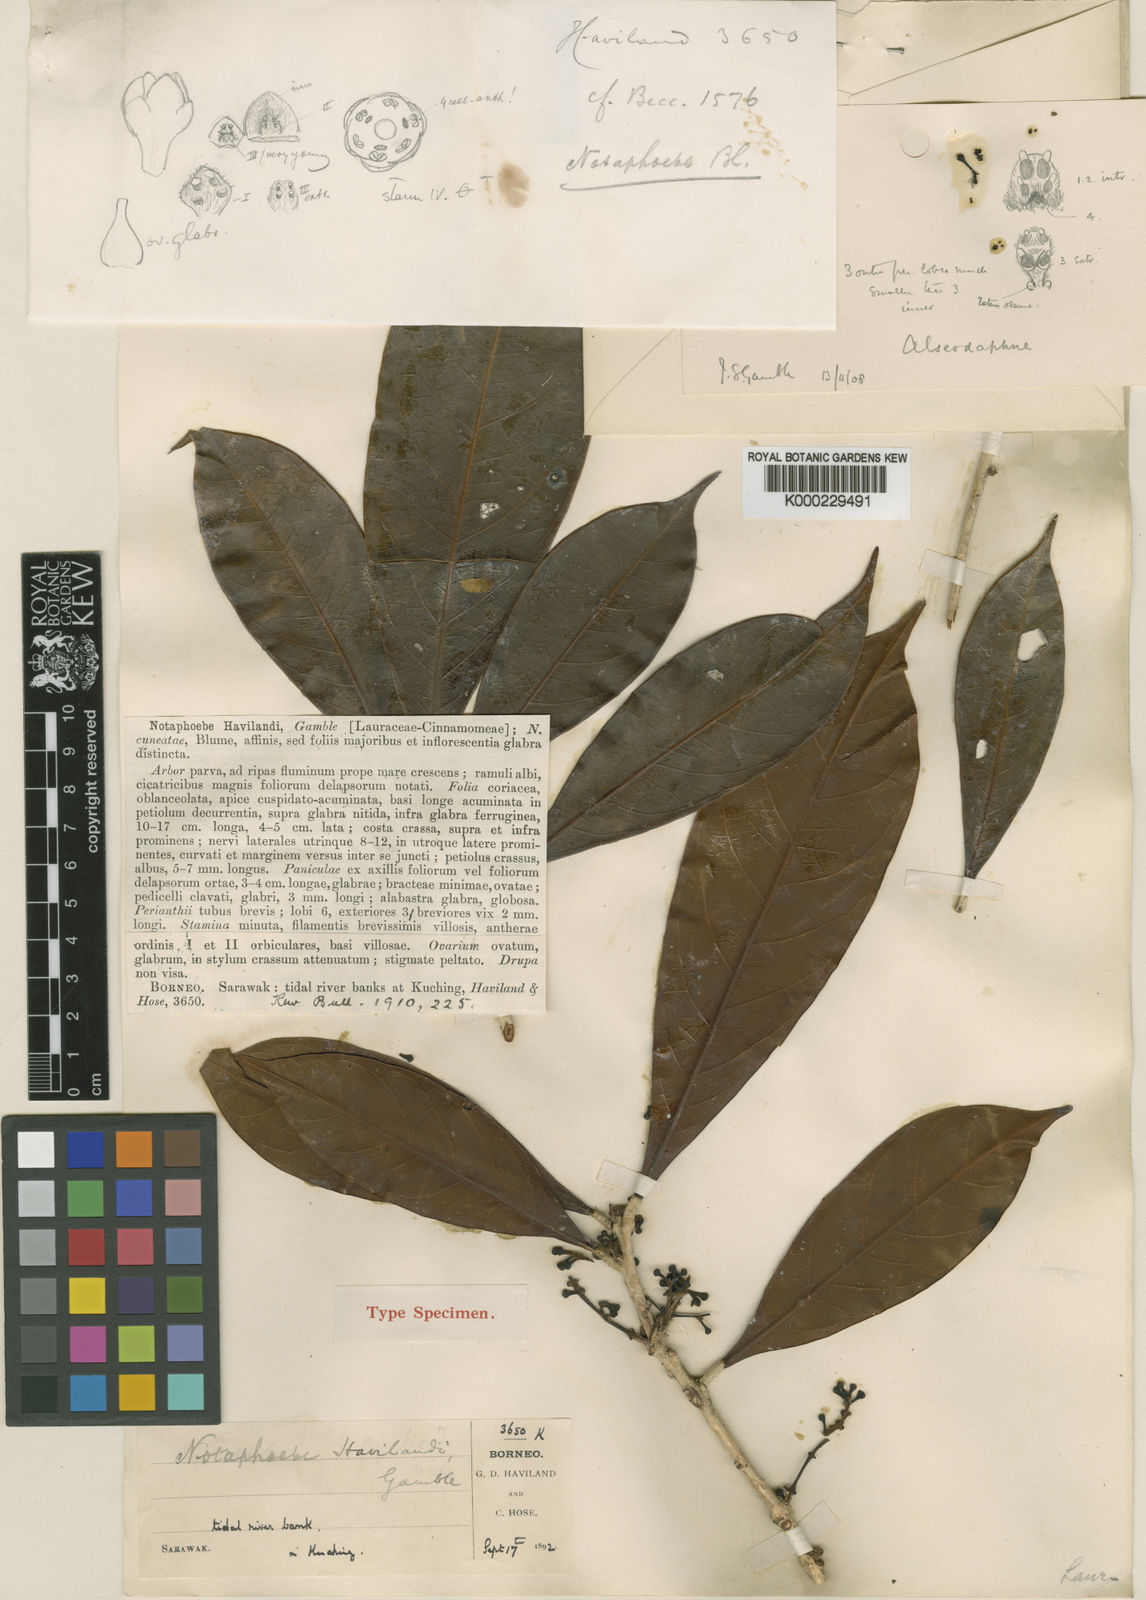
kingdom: Plantae
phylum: Tracheophyta
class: Magnoliopsida
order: Laurales
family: Lauraceae
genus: Nothaphoebe
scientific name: Nothaphoebe
